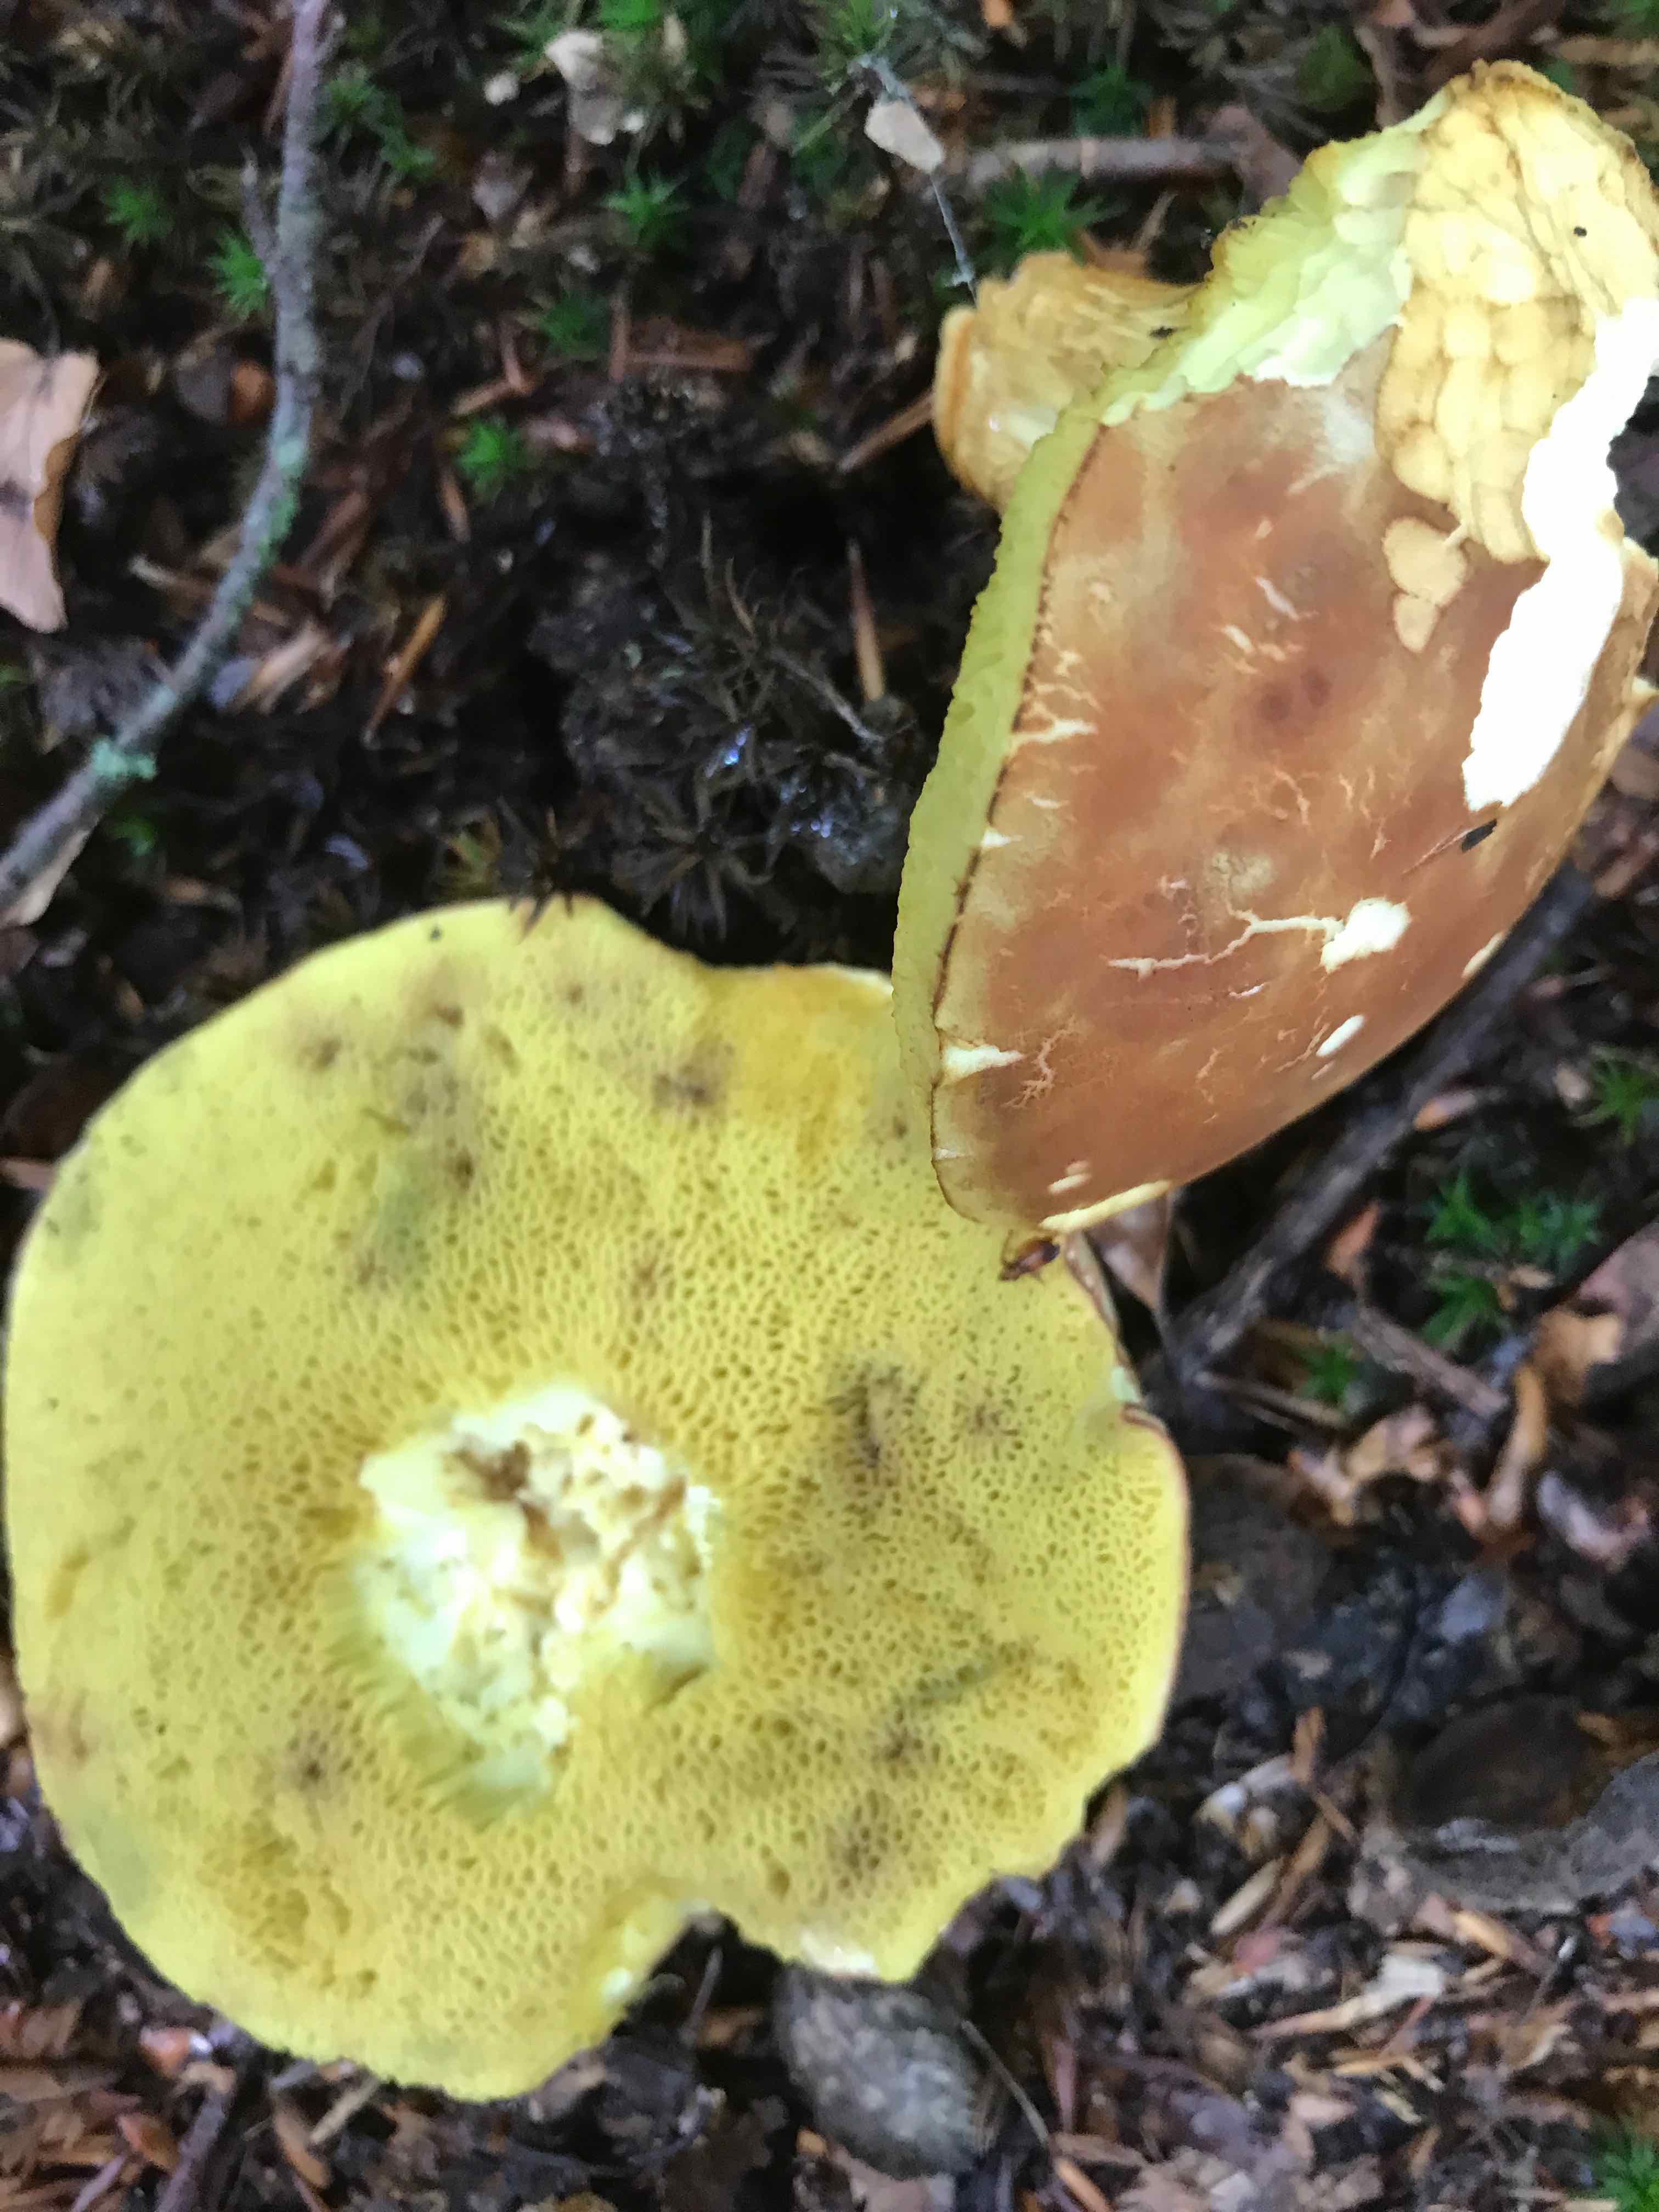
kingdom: Fungi
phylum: Basidiomycota
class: Agaricomycetes
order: Boletales
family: Boletaceae
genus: Xerocomus
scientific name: Xerocomus
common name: filtrørhat
